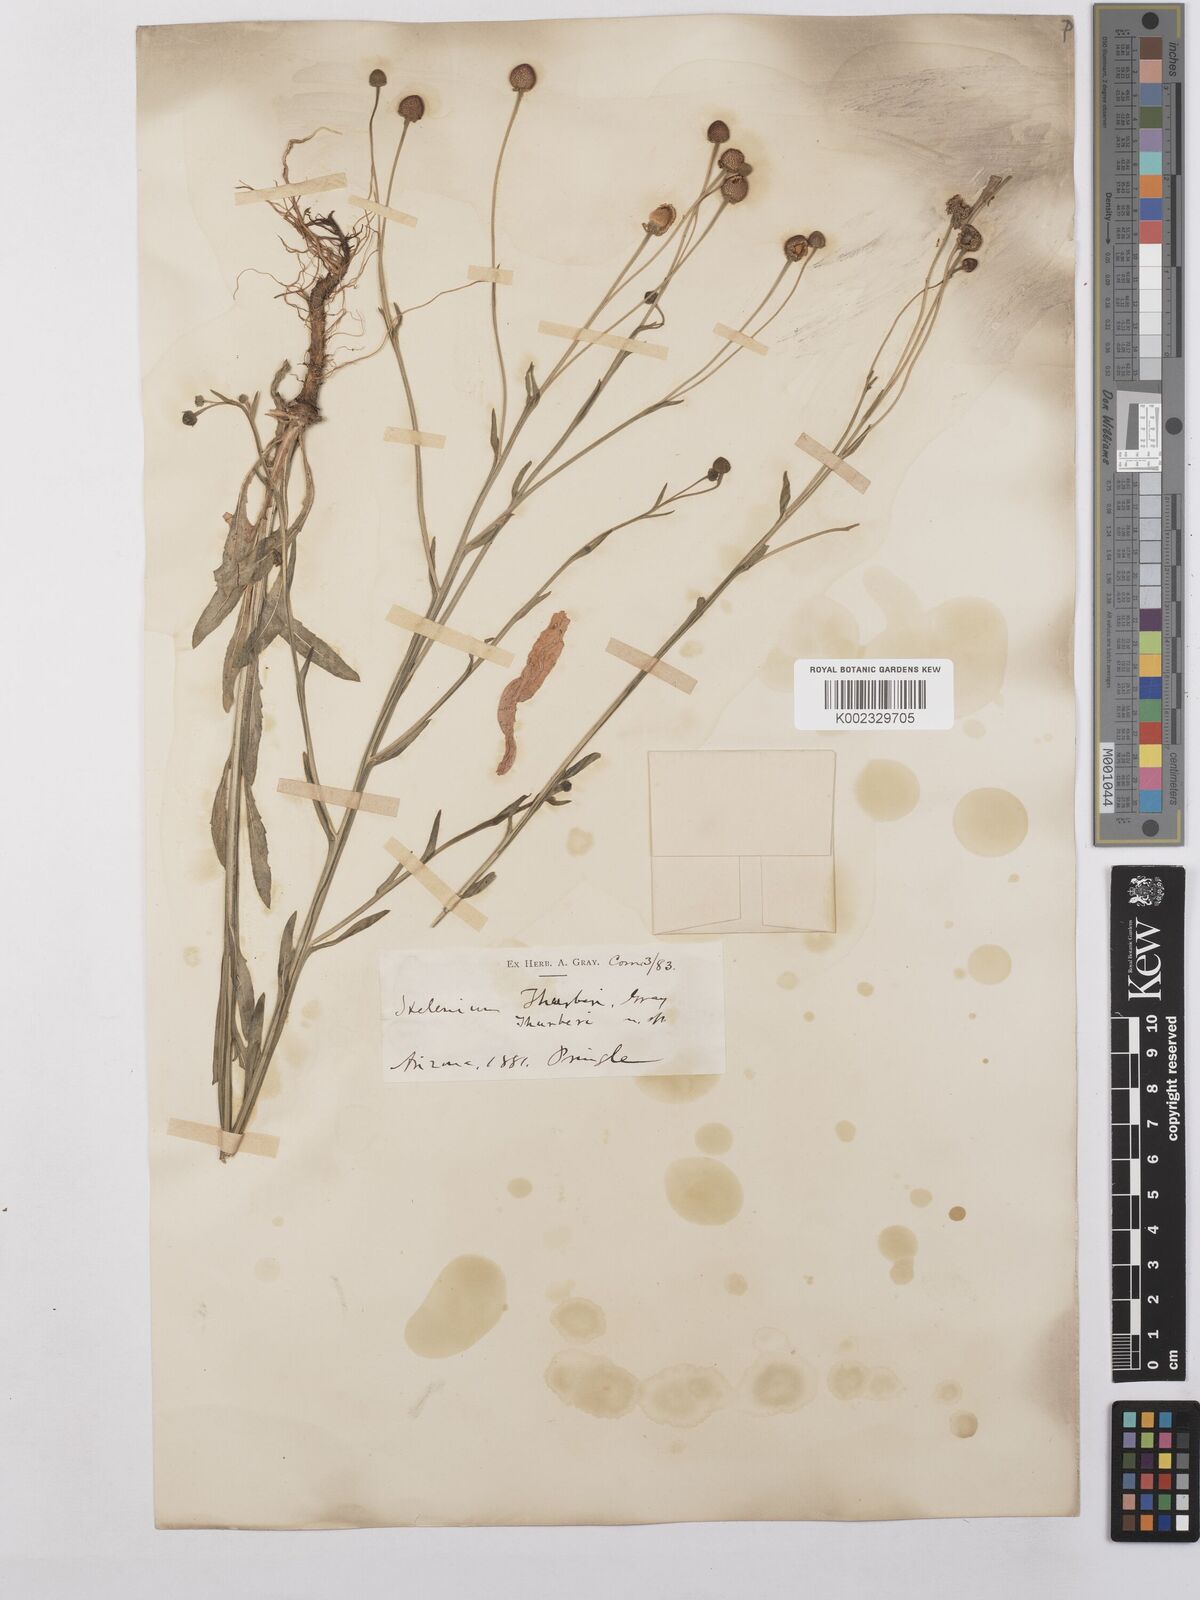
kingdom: Plantae
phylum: Tracheophyta
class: Magnoliopsida
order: Asterales
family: Asteraceae
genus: Helenium
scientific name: Helenium thurberi
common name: Thurber's sneezeweed
